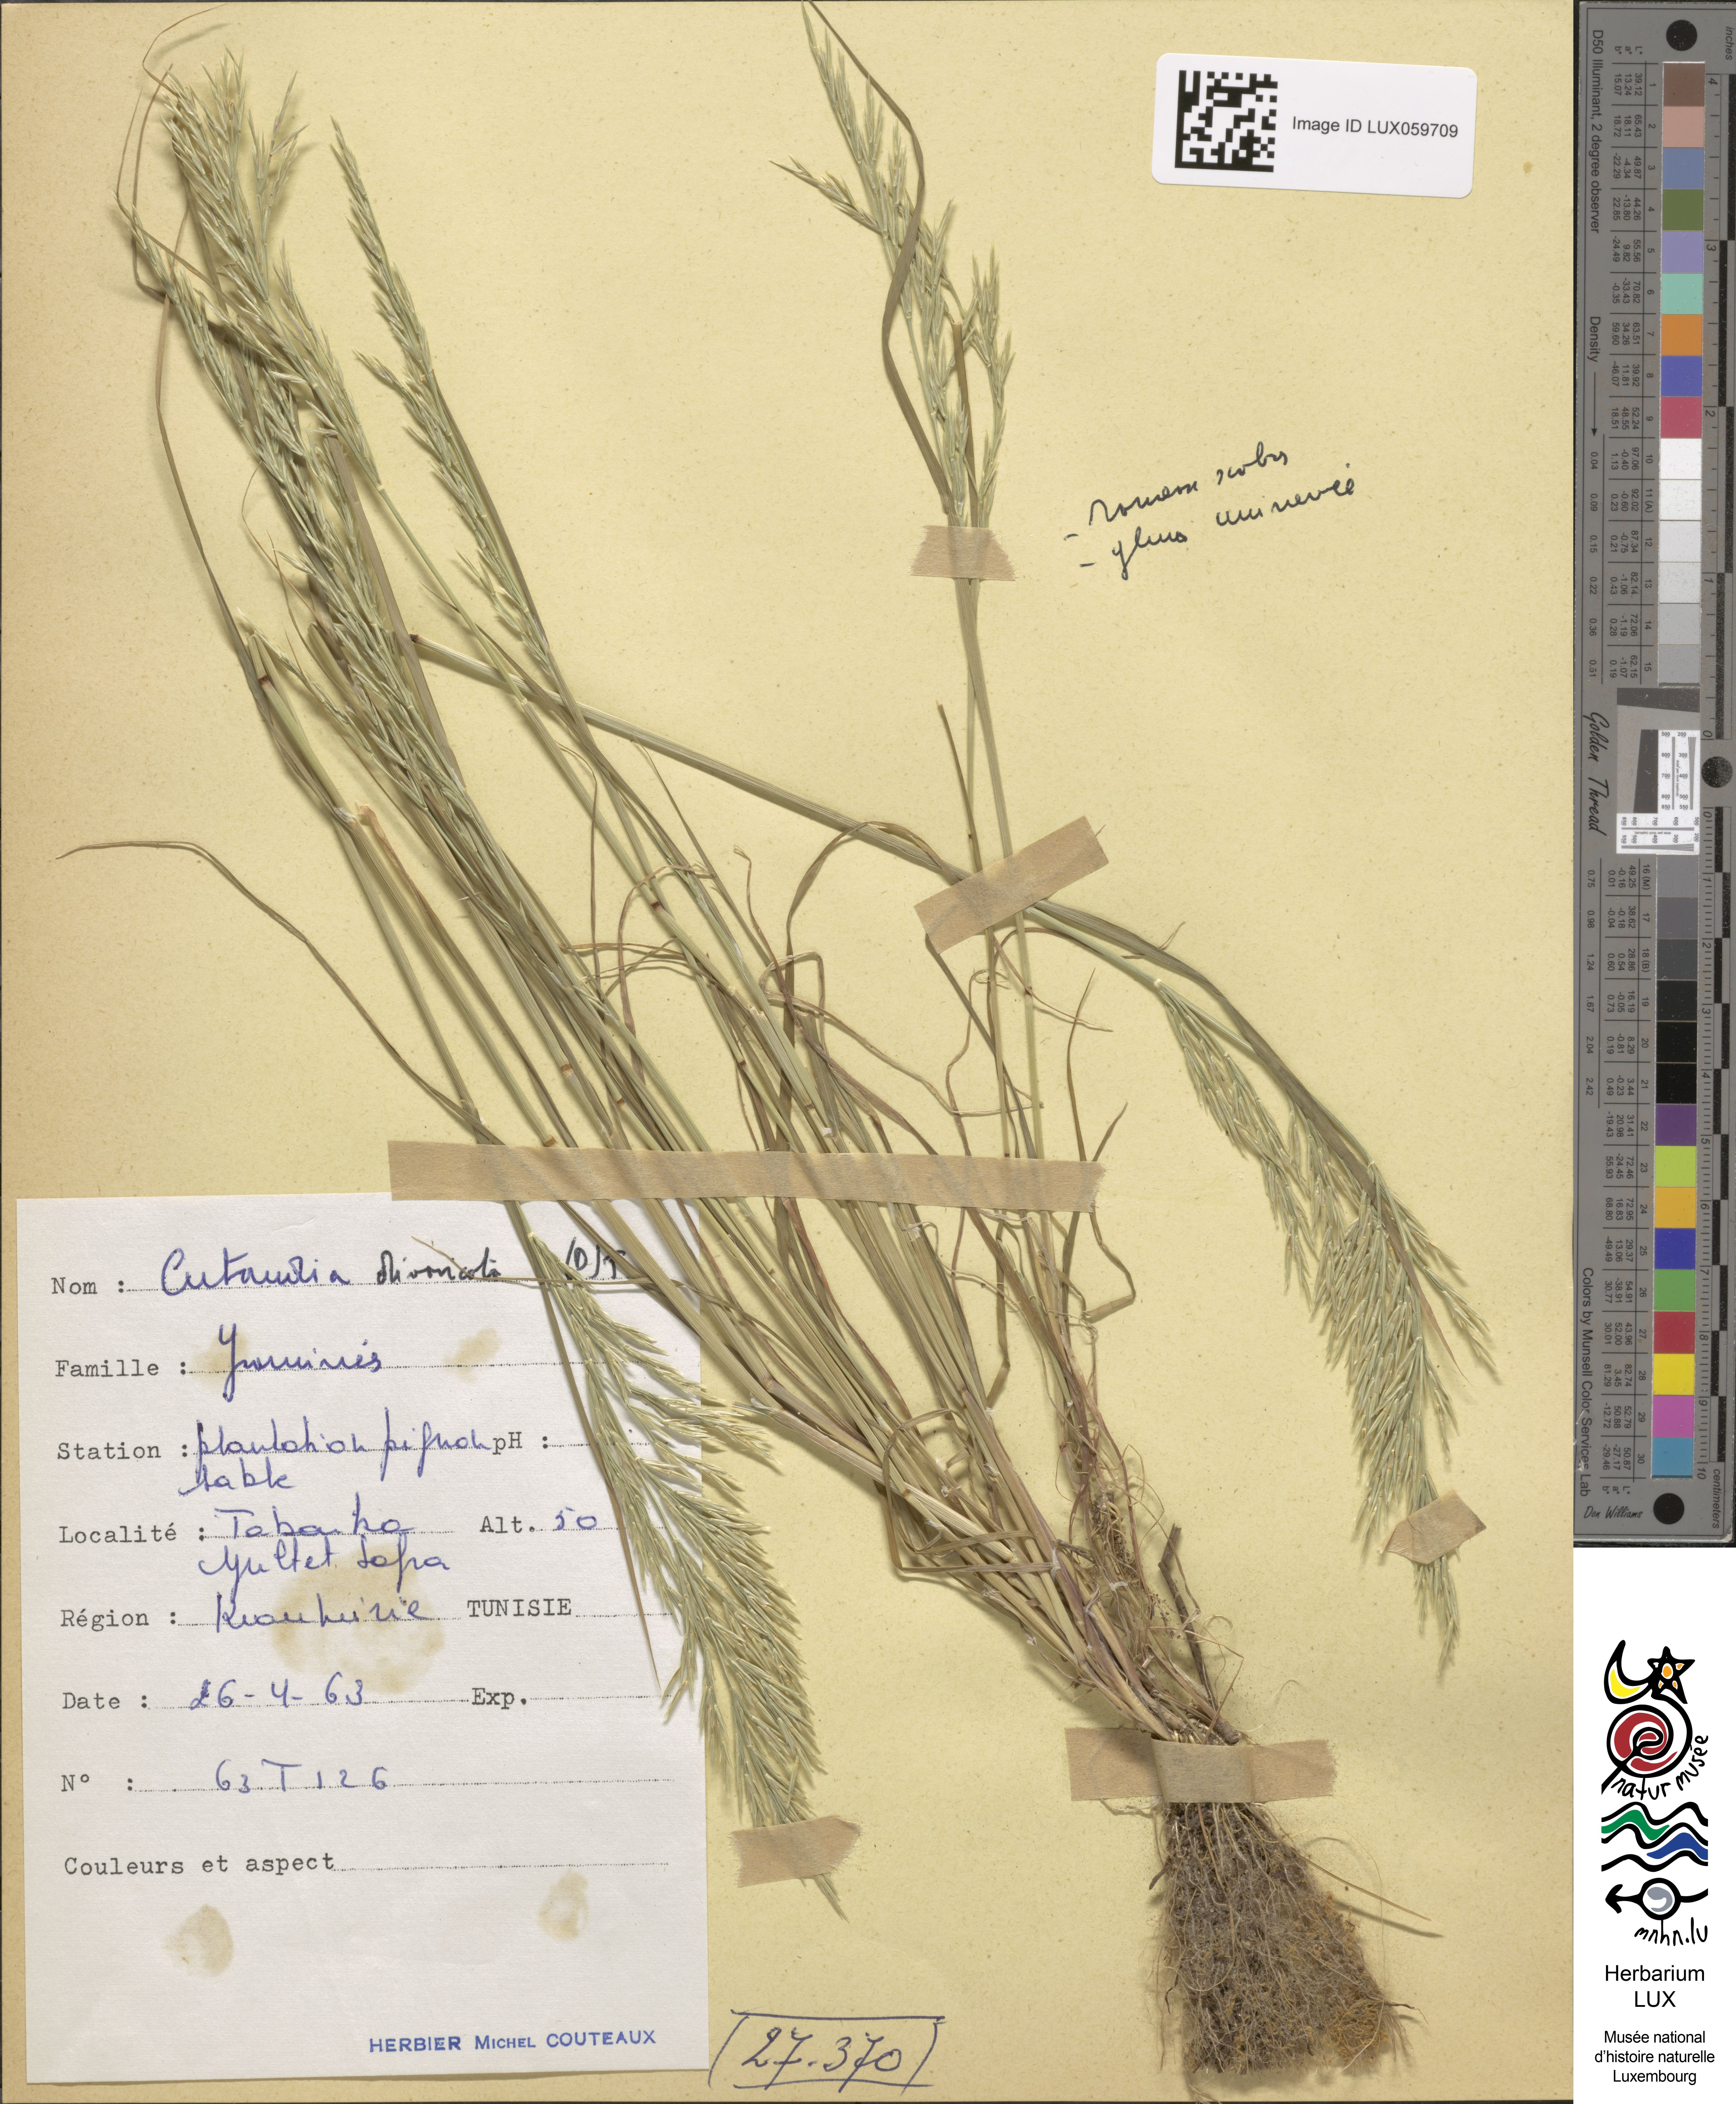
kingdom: Plantae
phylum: Tracheophyta
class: Liliopsida
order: Poales
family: Poaceae
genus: Cutandia
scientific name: Cutandia divaricata
